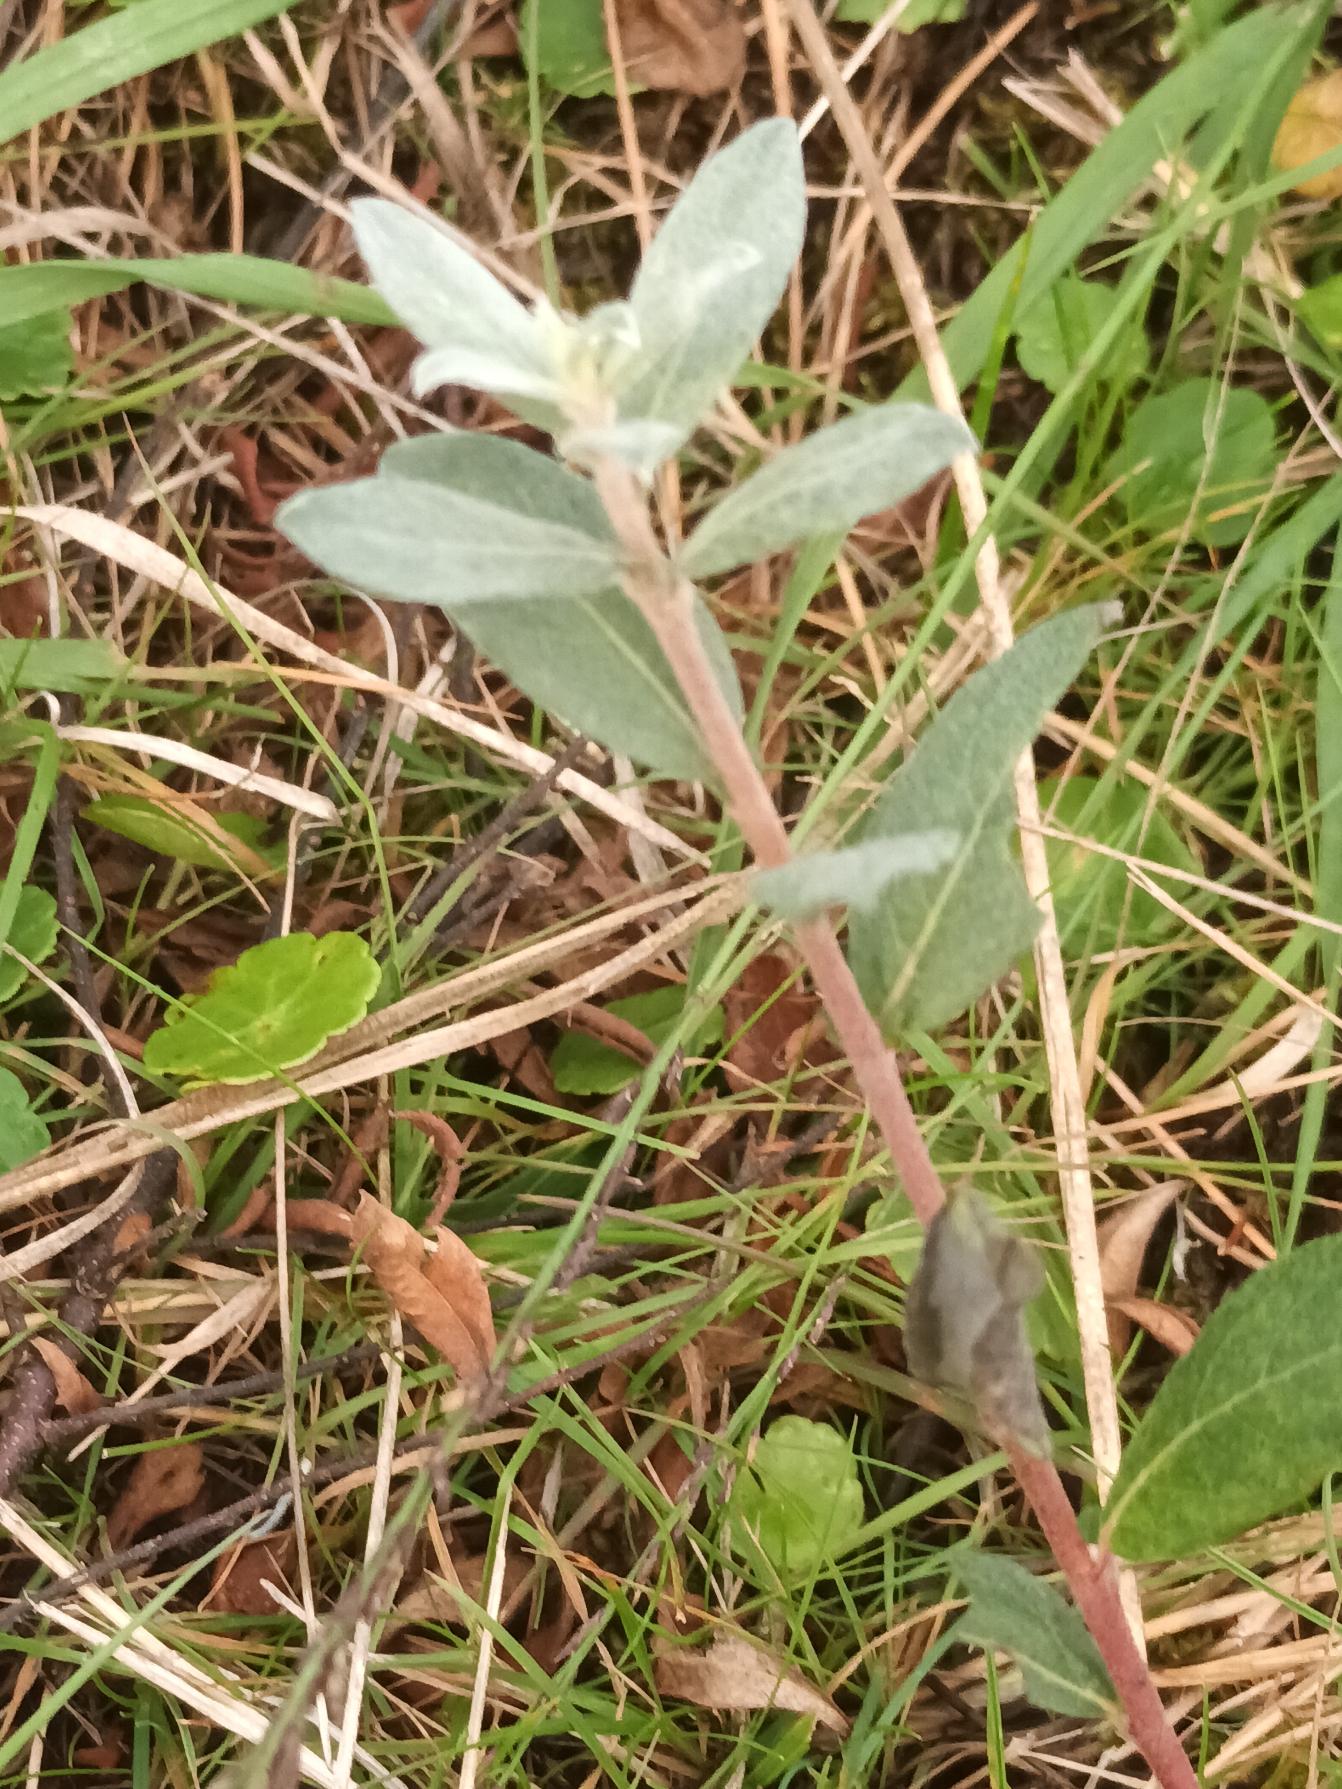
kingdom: Plantae
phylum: Tracheophyta
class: Magnoliopsida
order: Malpighiales
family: Salicaceae
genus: Salix
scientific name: Salix repens
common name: Krybende pil
